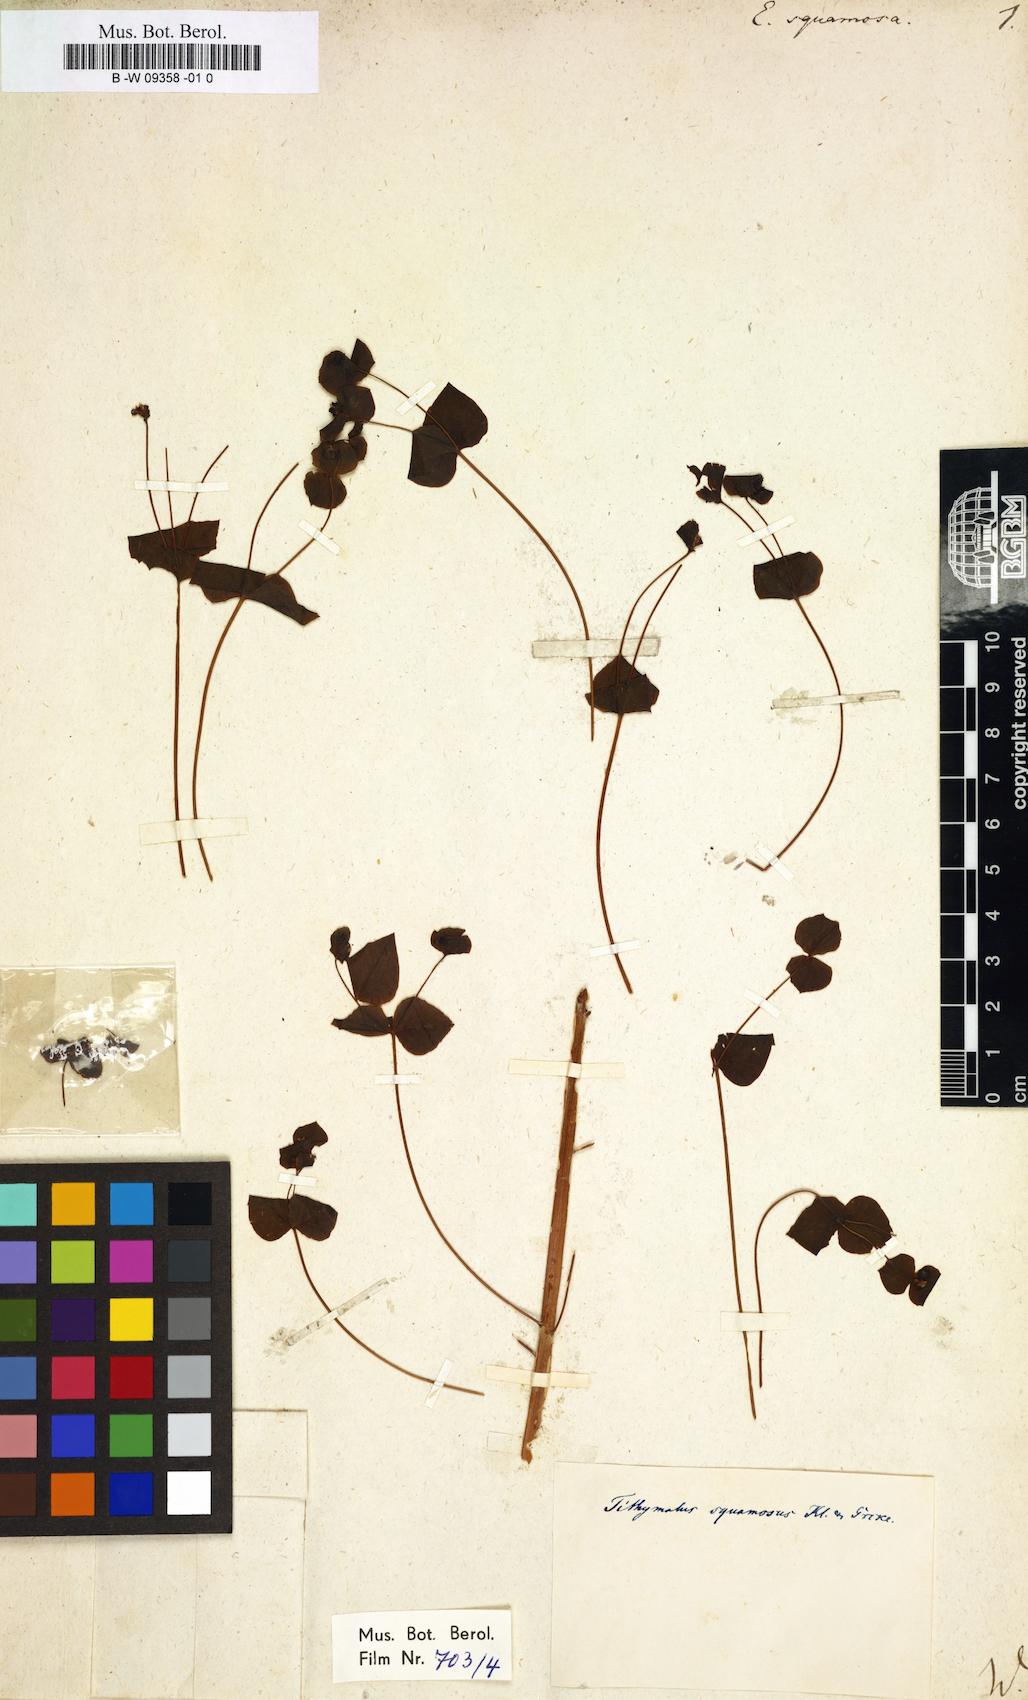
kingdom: Plantae
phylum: Tracheophyta
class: Magnoliopsida
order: Malpighiales
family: Euphorbiaceae
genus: Euphorbia
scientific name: Euphorbia squamosa
